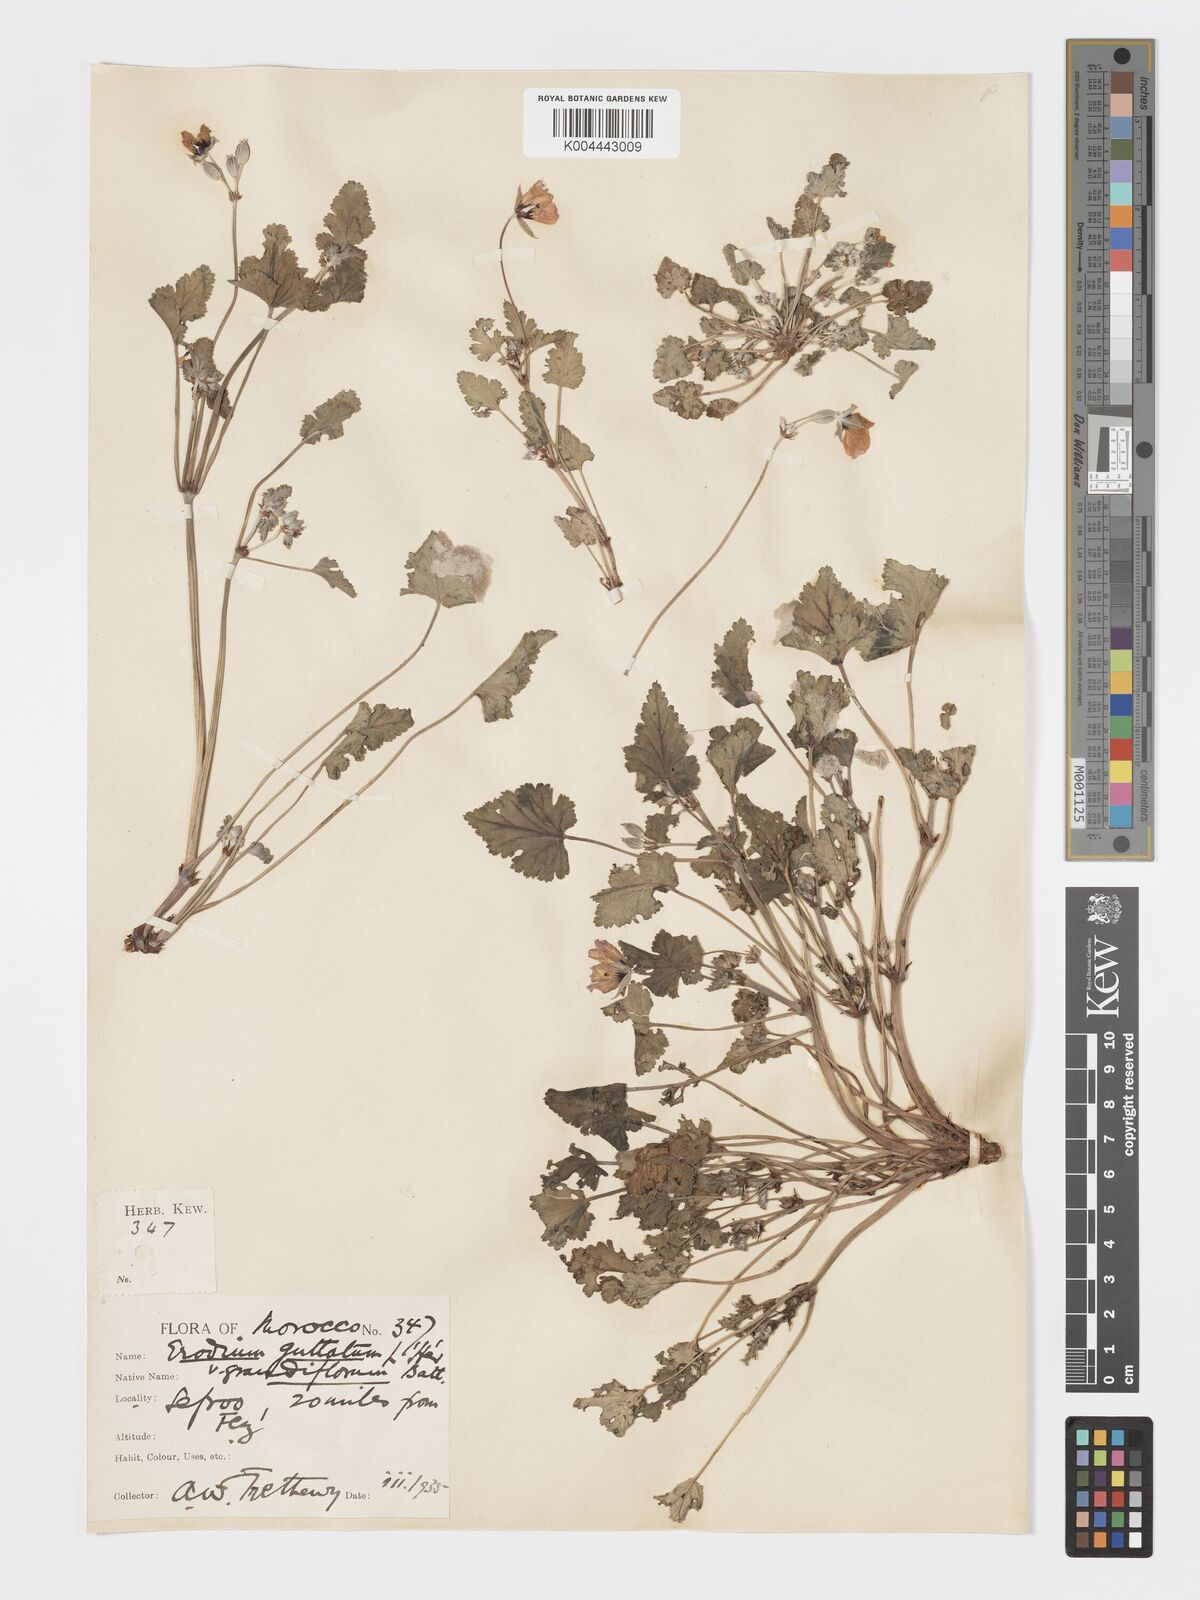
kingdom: Plantae
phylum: Tracheophyta
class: Magnoliopsida
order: Geraniales
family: Geraniaceae
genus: Erodium
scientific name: Erodium guttatum
